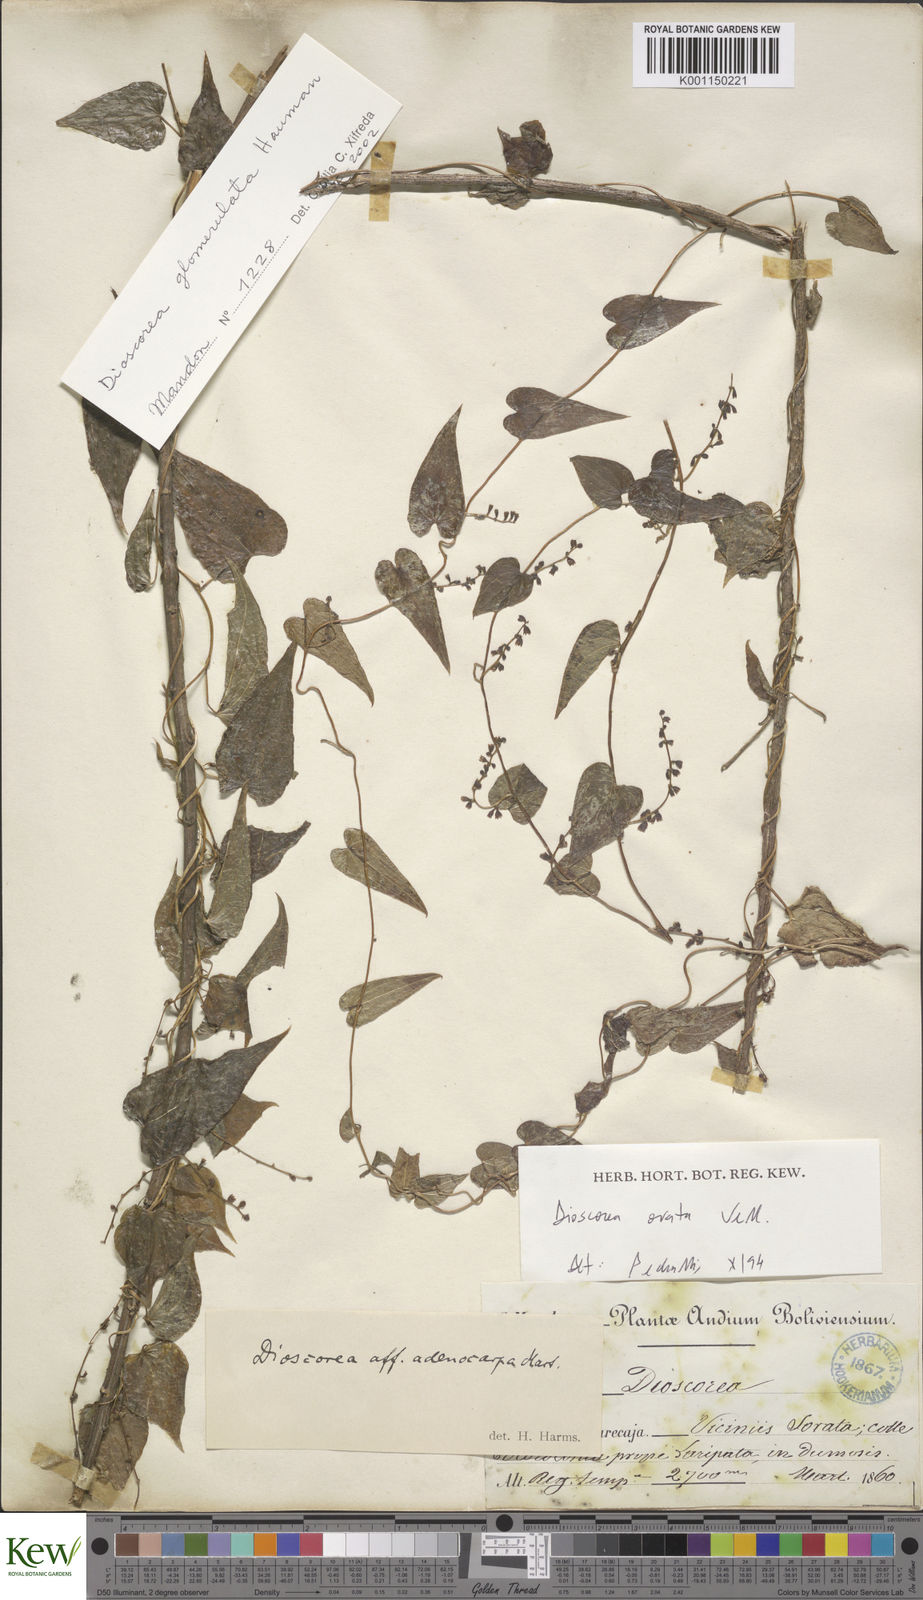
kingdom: Plantae
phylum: Tracheophyta
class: Liliopsida
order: Dioscoreales
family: Dioscoreaceae
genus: Dioscorea
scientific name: Dioscorea ovata
